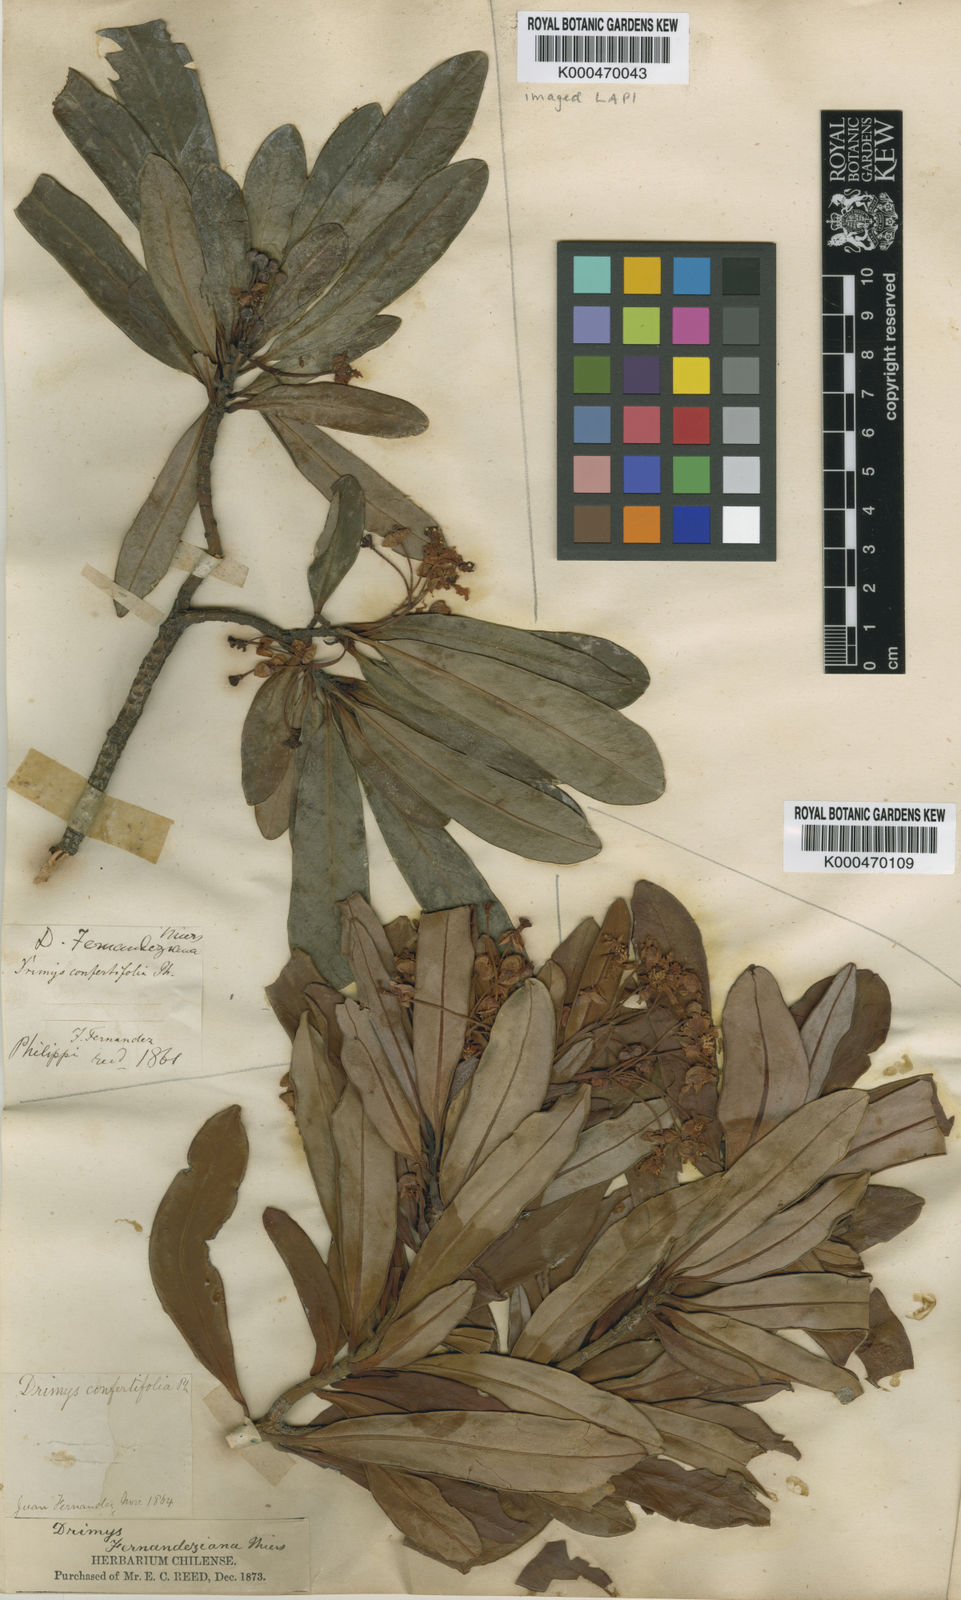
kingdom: Plantae
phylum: Tracheophyta
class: Magnoliopsida
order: Canellales
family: Winteraceae
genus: Drimys
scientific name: Drimys confertiflora
